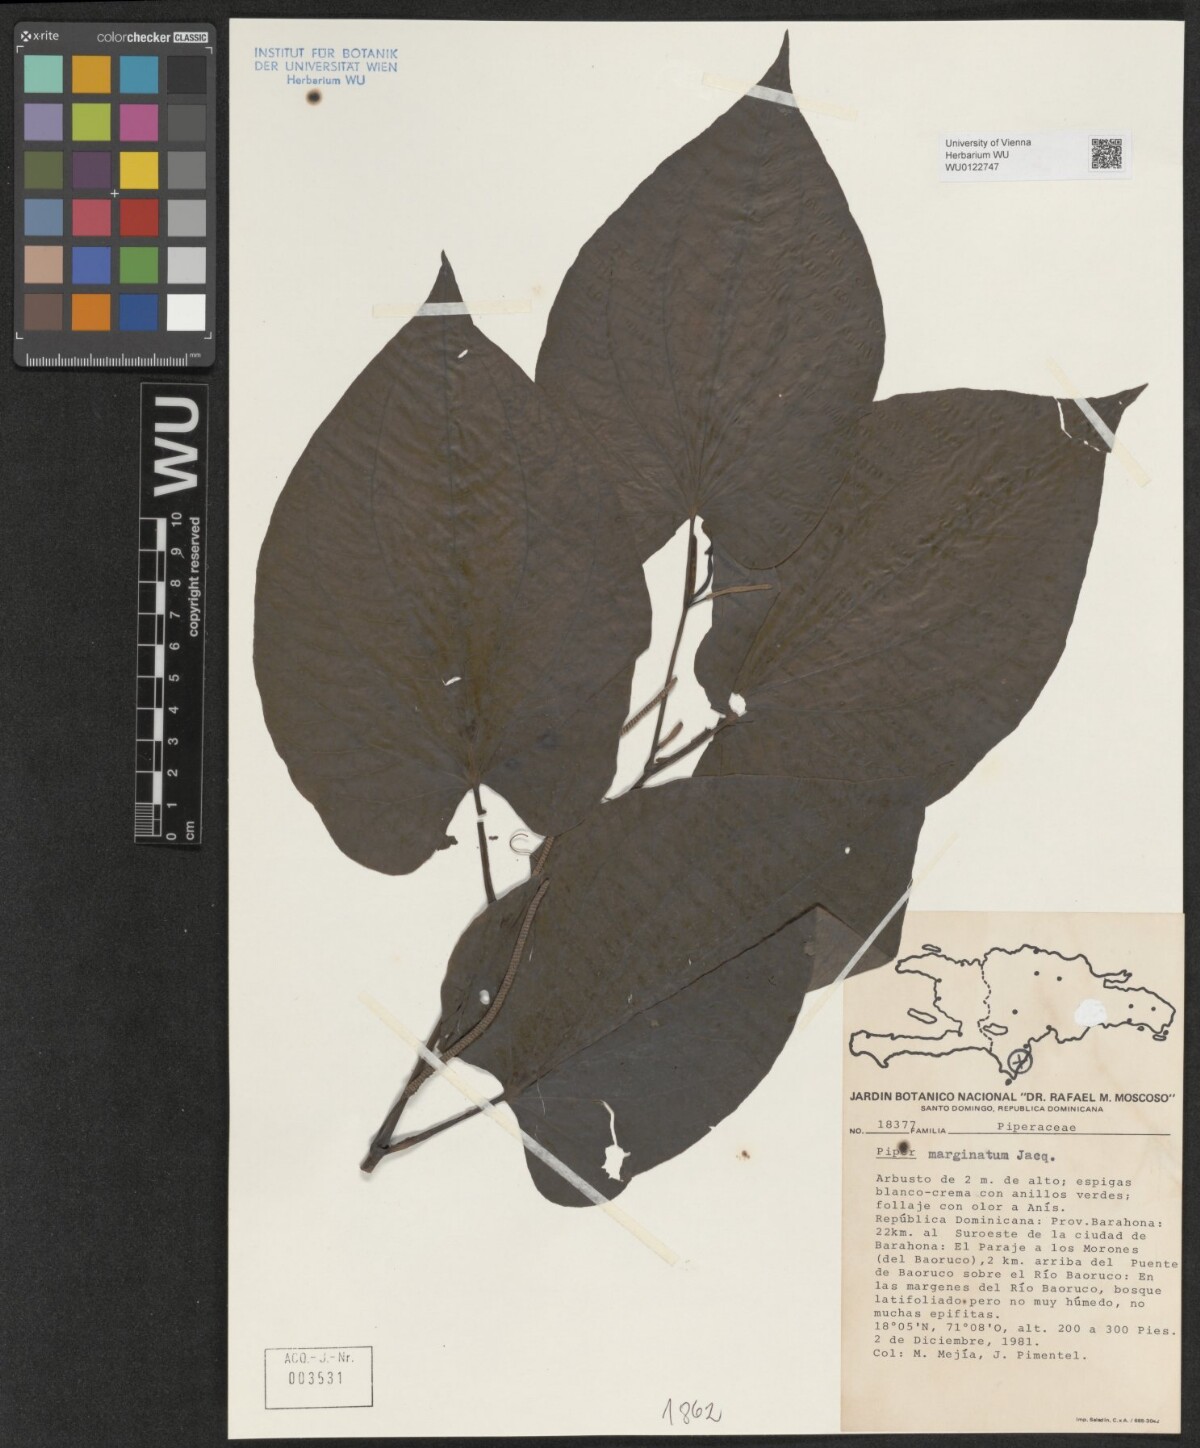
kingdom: Plantae
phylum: Tracheophyta
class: Magnoliopsida
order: Piperales
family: Piperaceae
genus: Piper
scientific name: Piper marginatum
